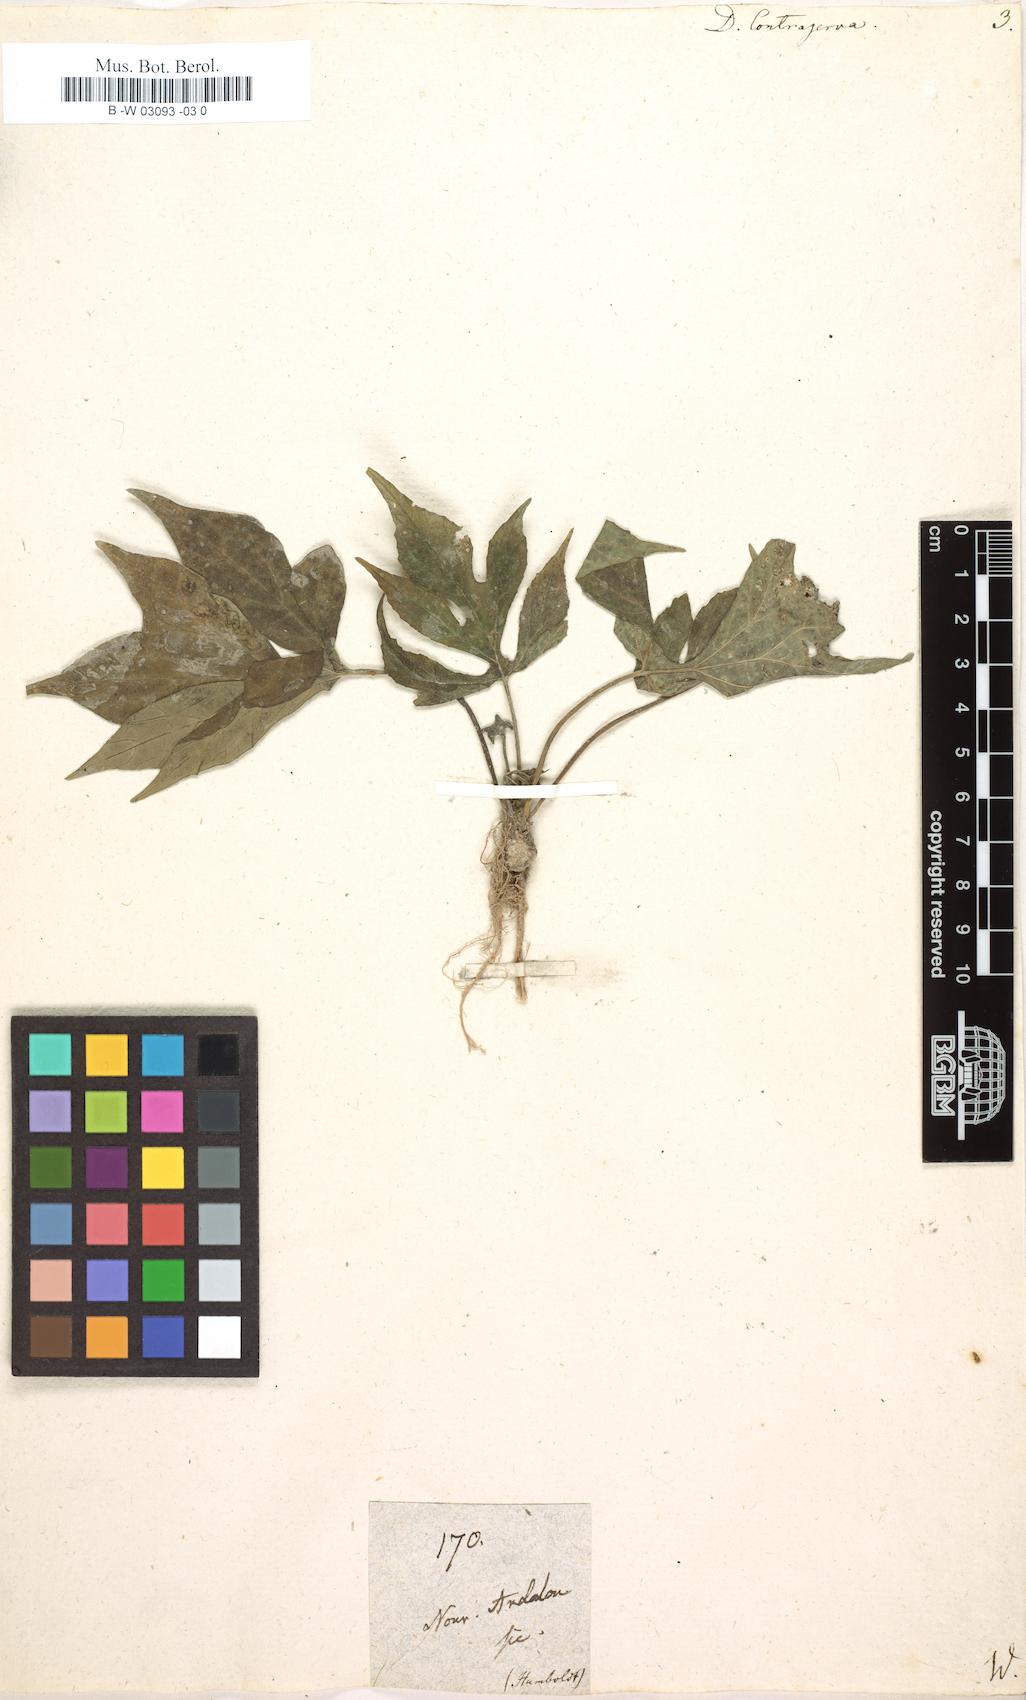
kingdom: Plantae
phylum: Tracheophyta
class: Magnoliopsida
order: Rosales
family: Moraceae
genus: Dorstenia
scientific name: Dorstenia contrajerva
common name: Tusilla
